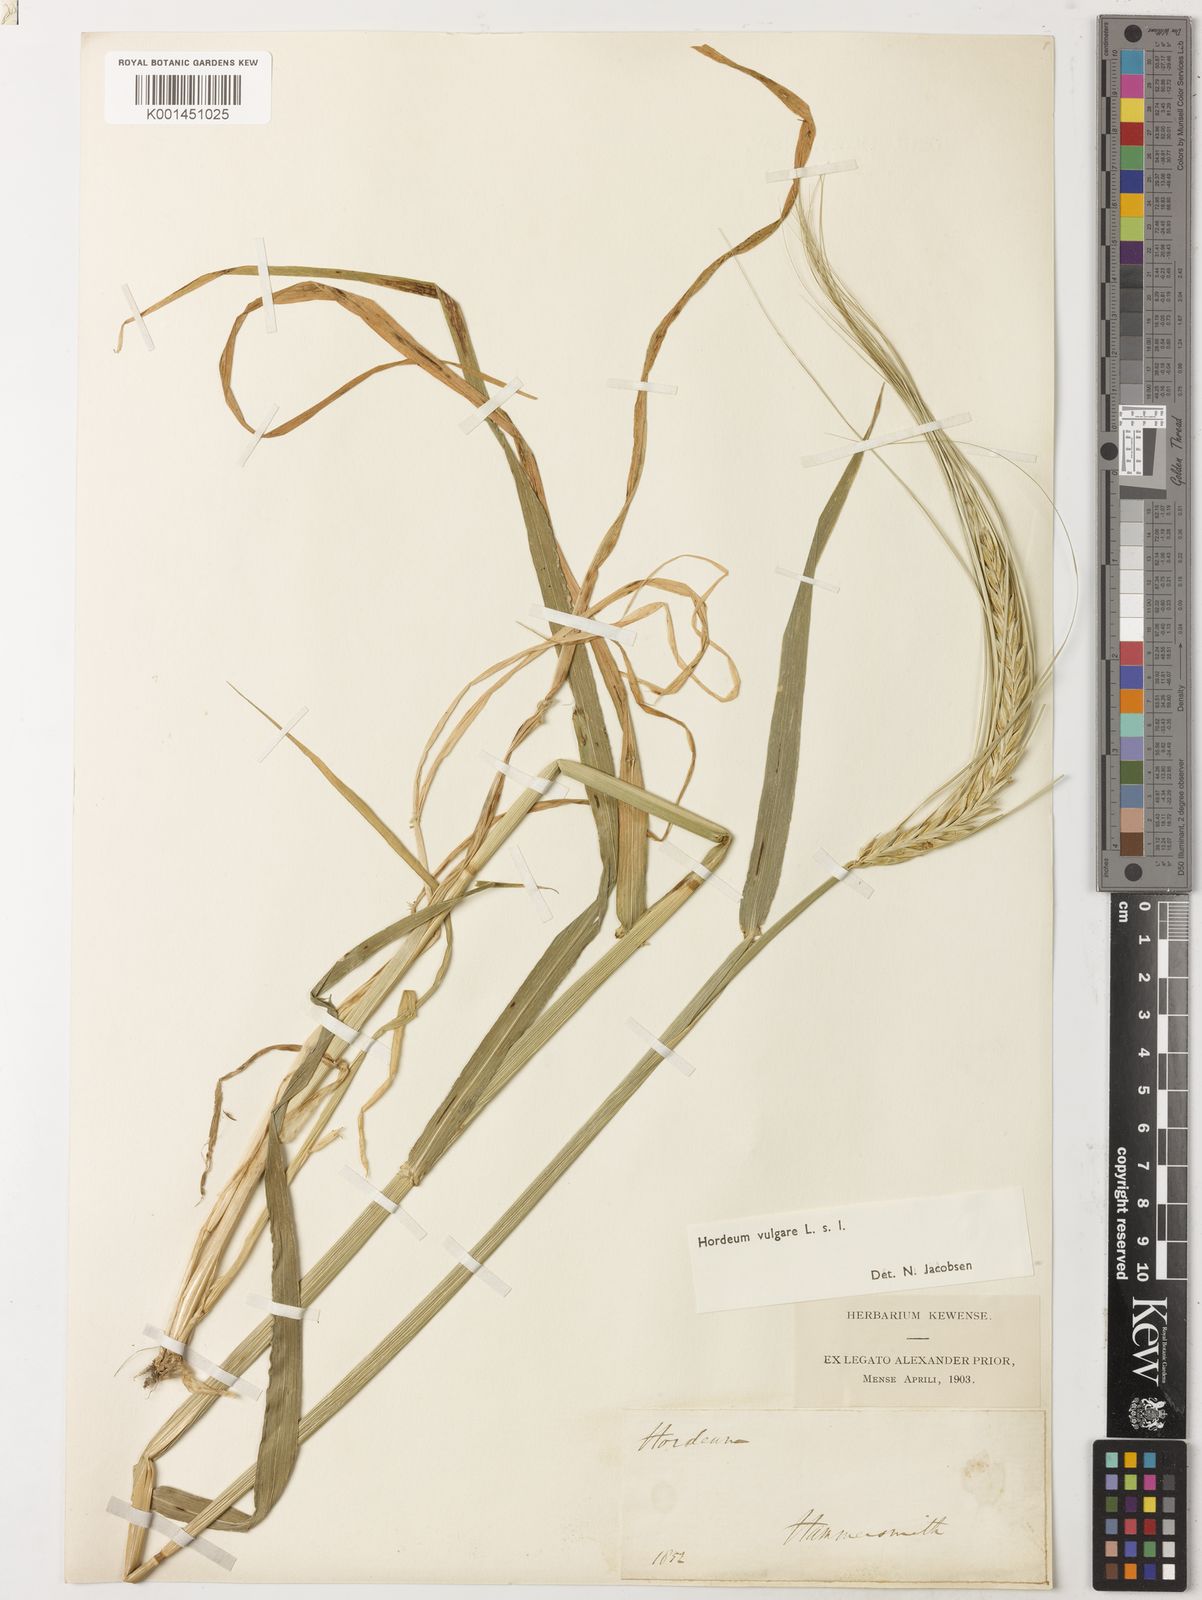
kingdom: Plantae
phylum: Tracheophyta
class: Liliopsida
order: Poales
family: Poaceae
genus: Hordeum
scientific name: Hordeum vulgare
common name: Common barley
